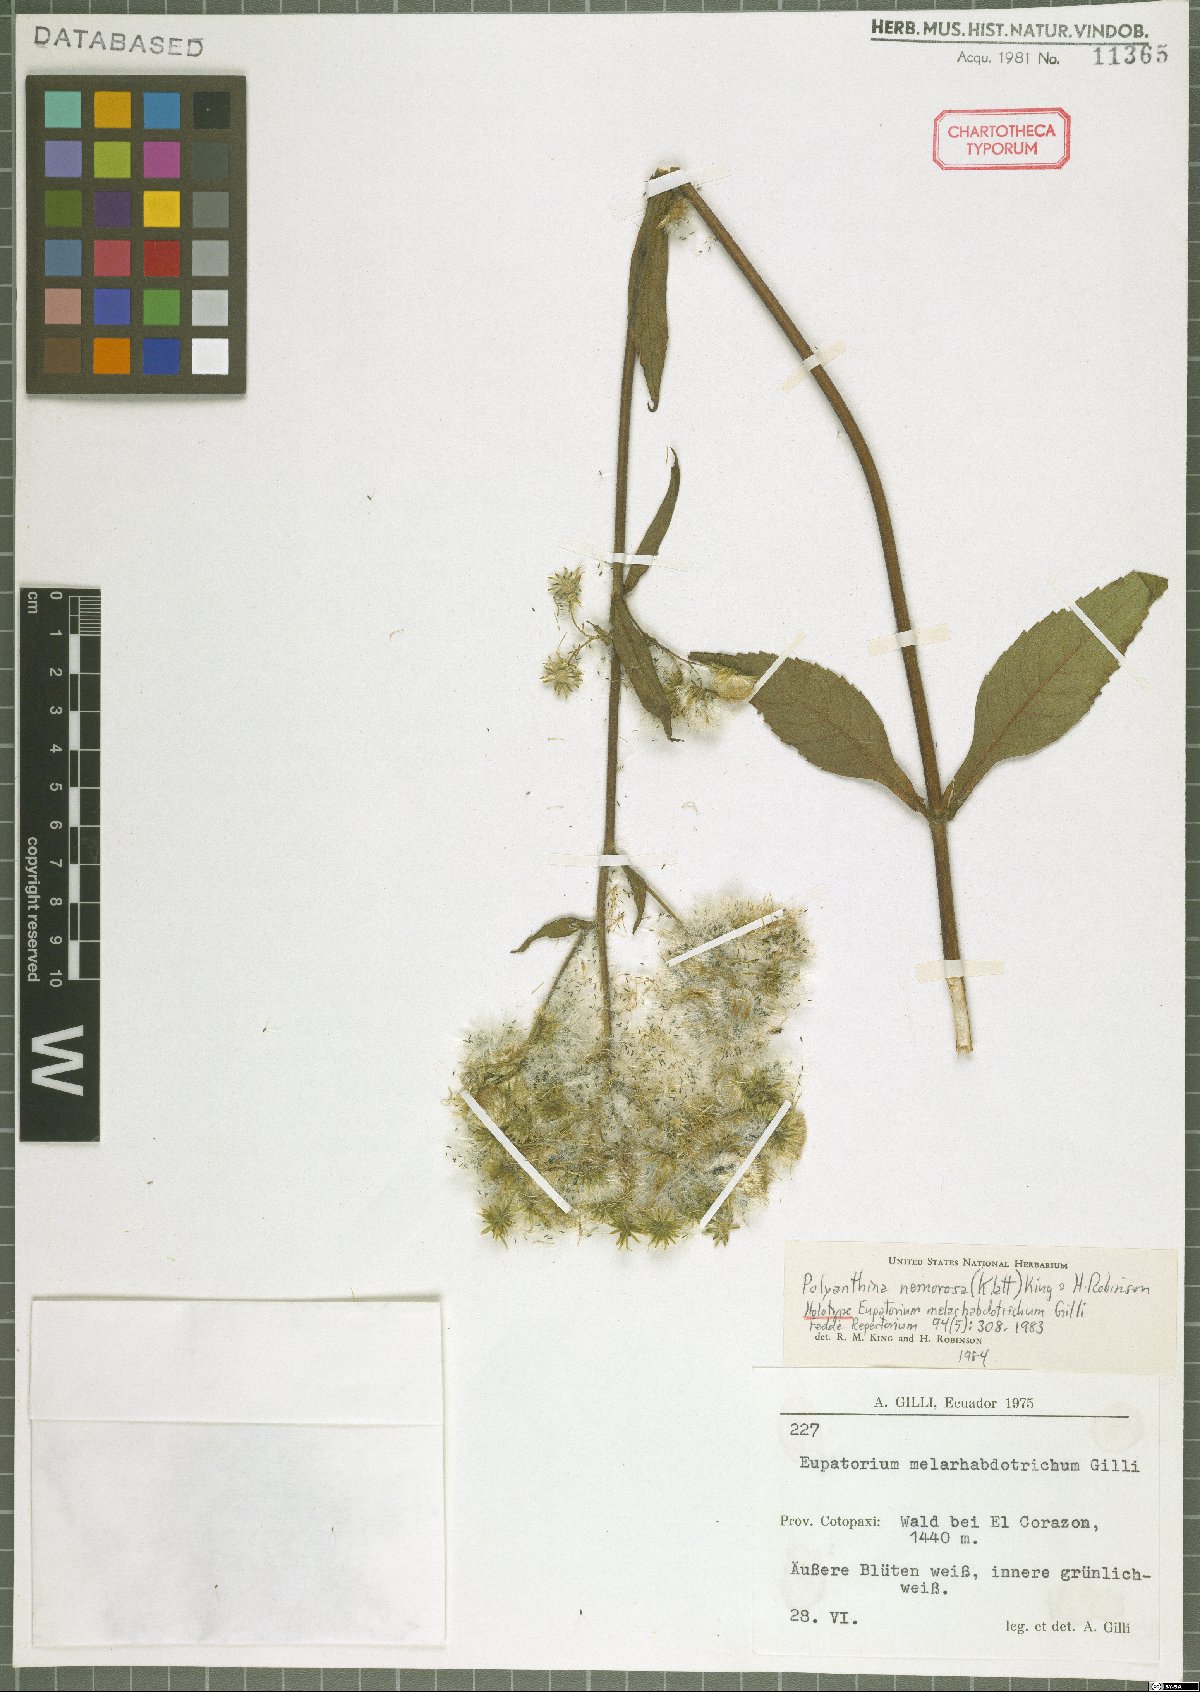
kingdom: Plantae
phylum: Tracheophyta
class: Magnoliopsida
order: Asterales
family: Asteraceae
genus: Polyanthina
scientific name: Polyanthina nemorosa
